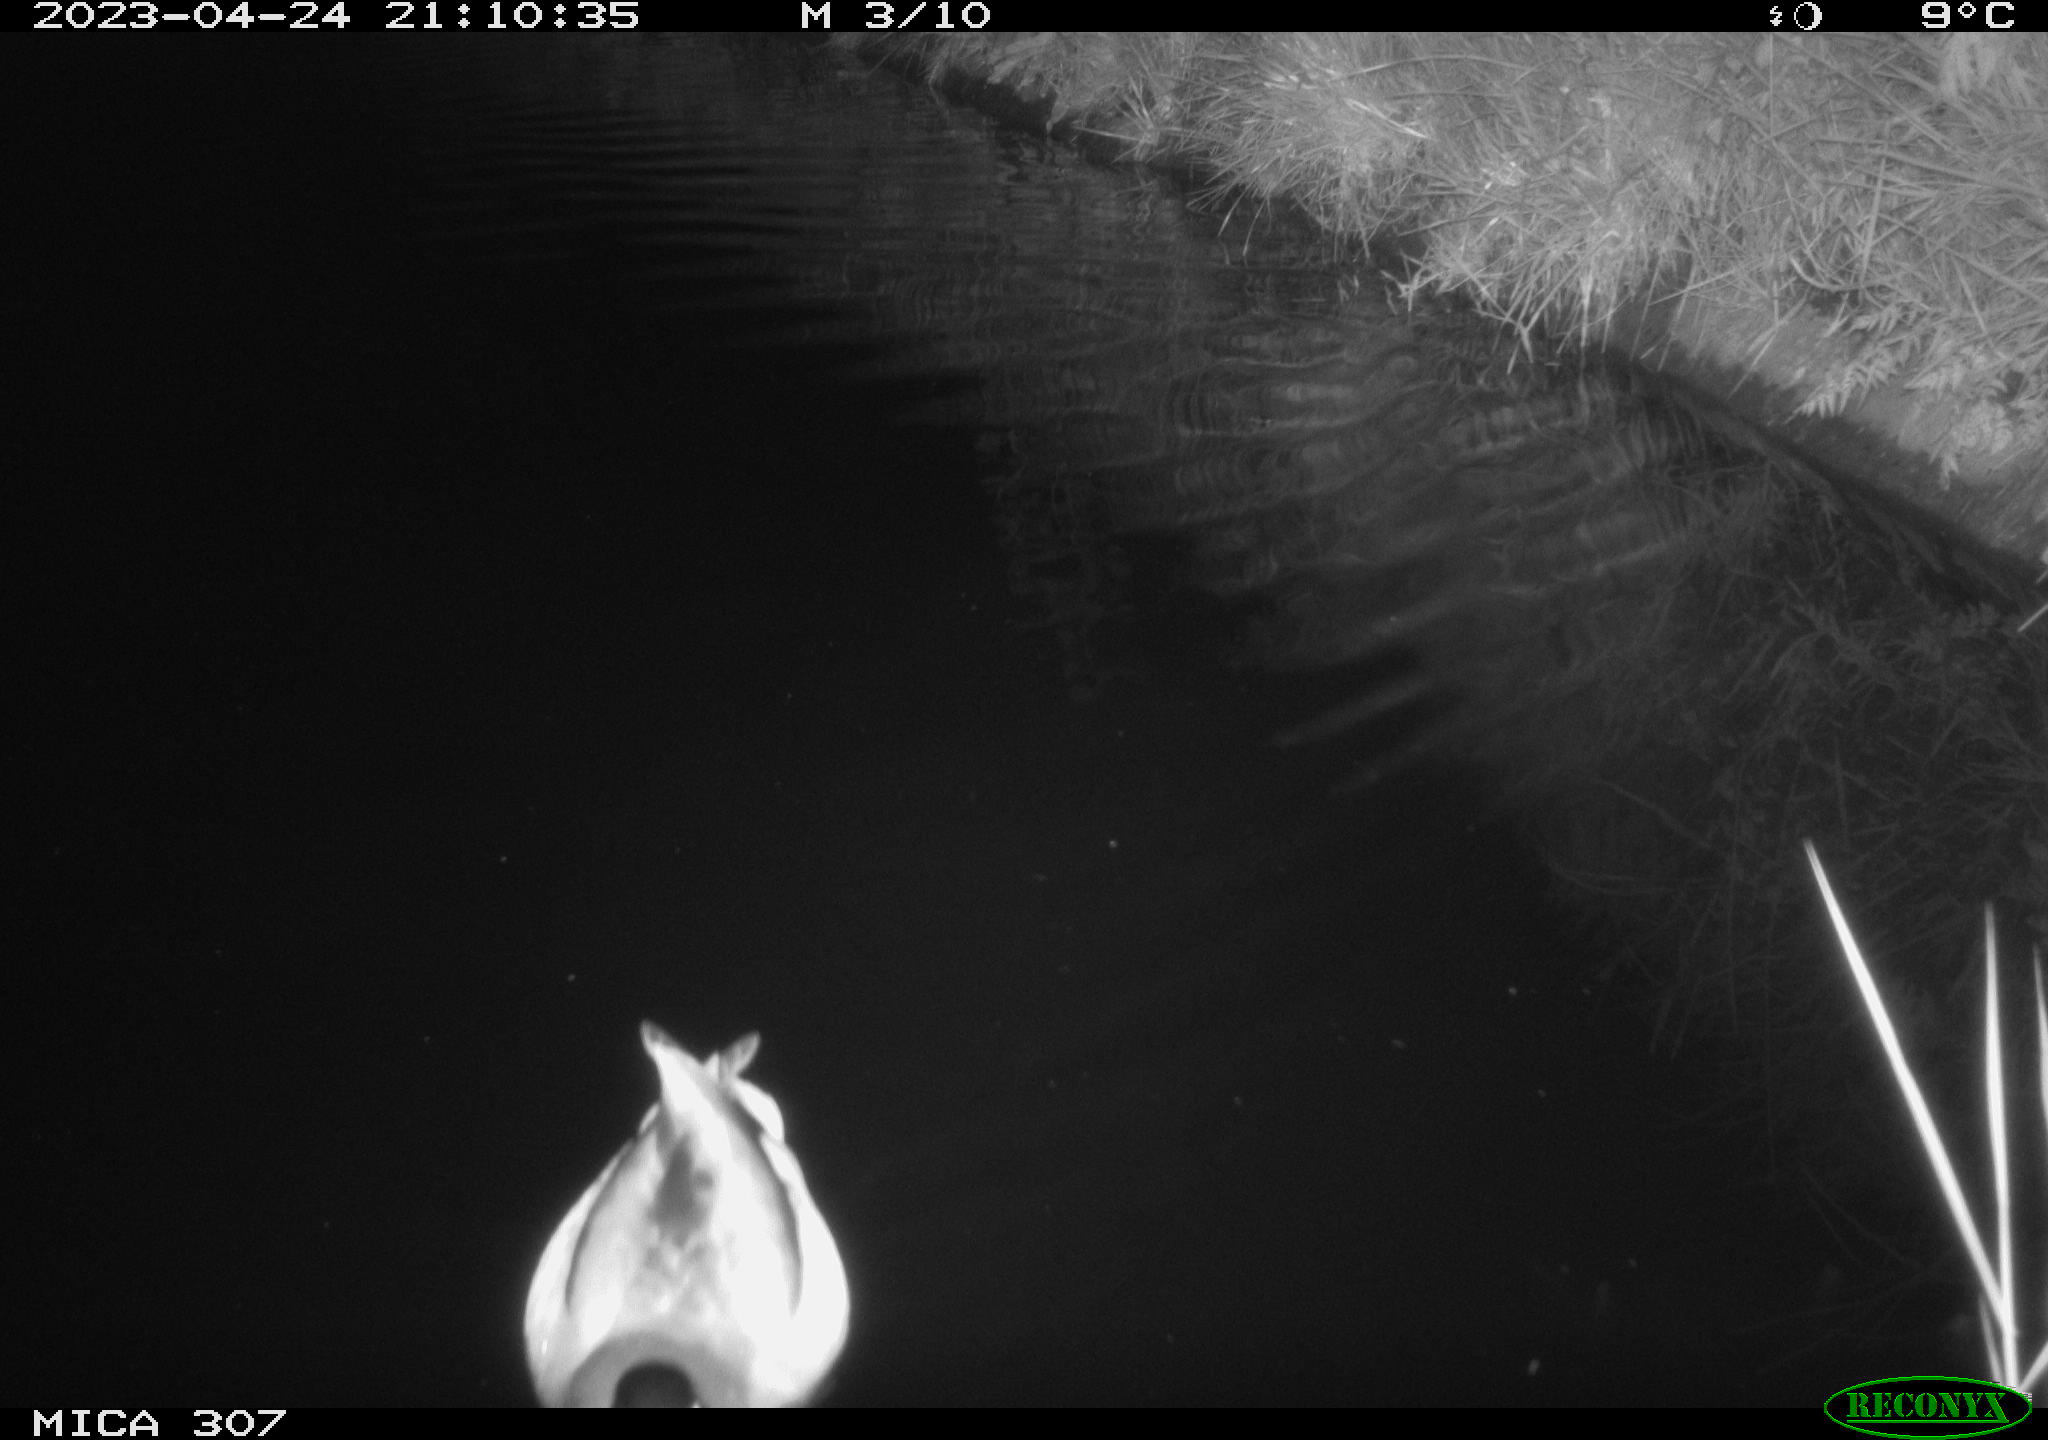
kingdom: Animalia
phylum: Chordata
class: Aves
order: Anseriformes
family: Anatidae
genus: Anas
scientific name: Anas
